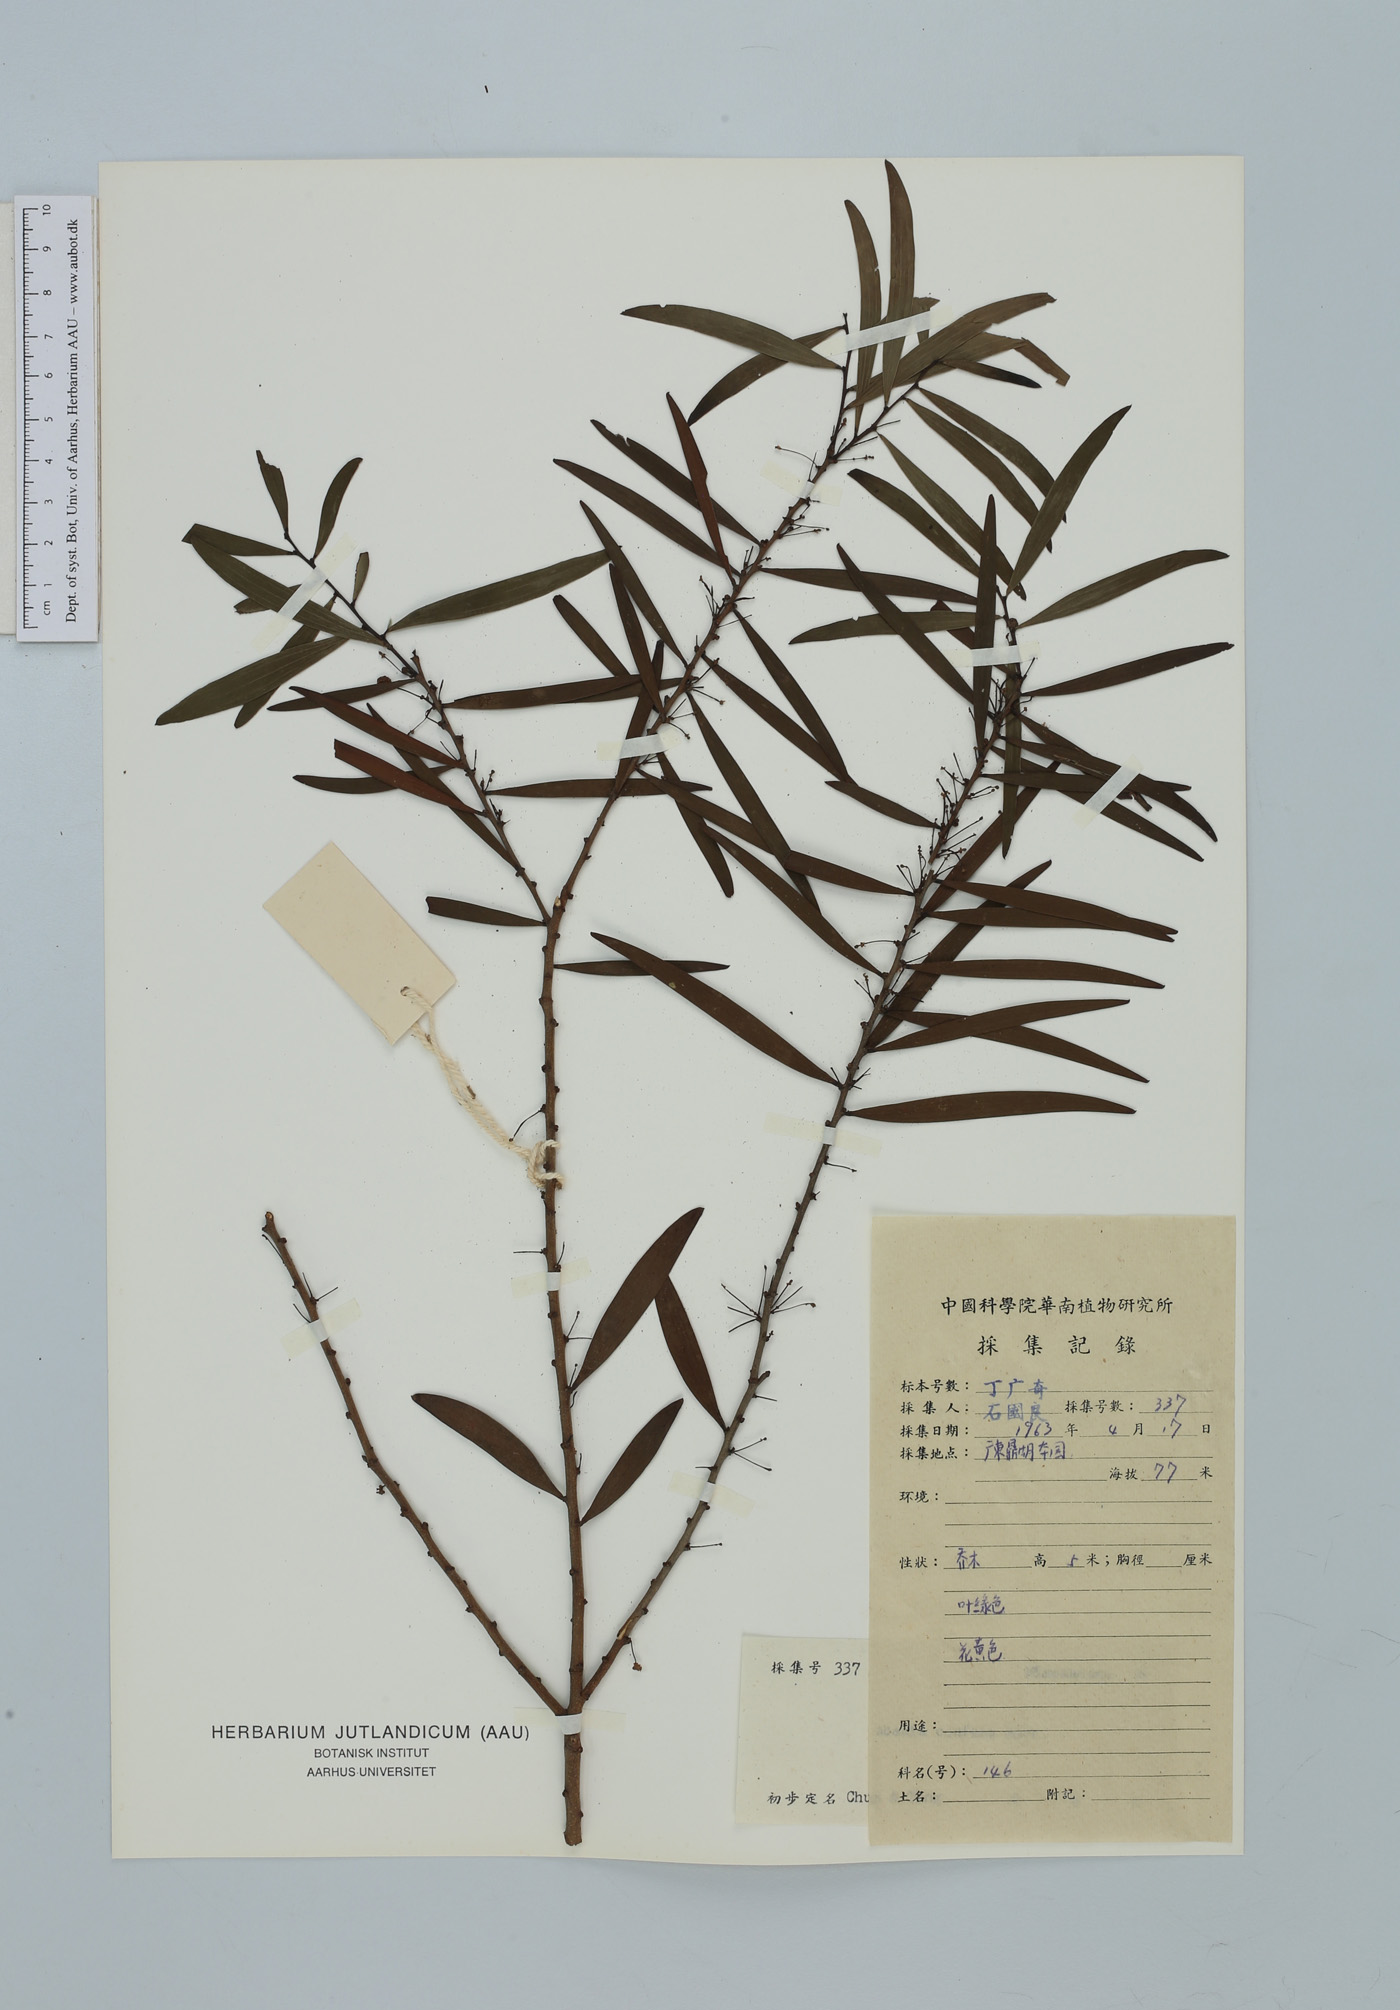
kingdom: Plantae
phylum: Tracheophyta
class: Magnoliopsida
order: Fabales
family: Fabaceae
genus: Acacia
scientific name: Acacia confusa
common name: Formosan koa
